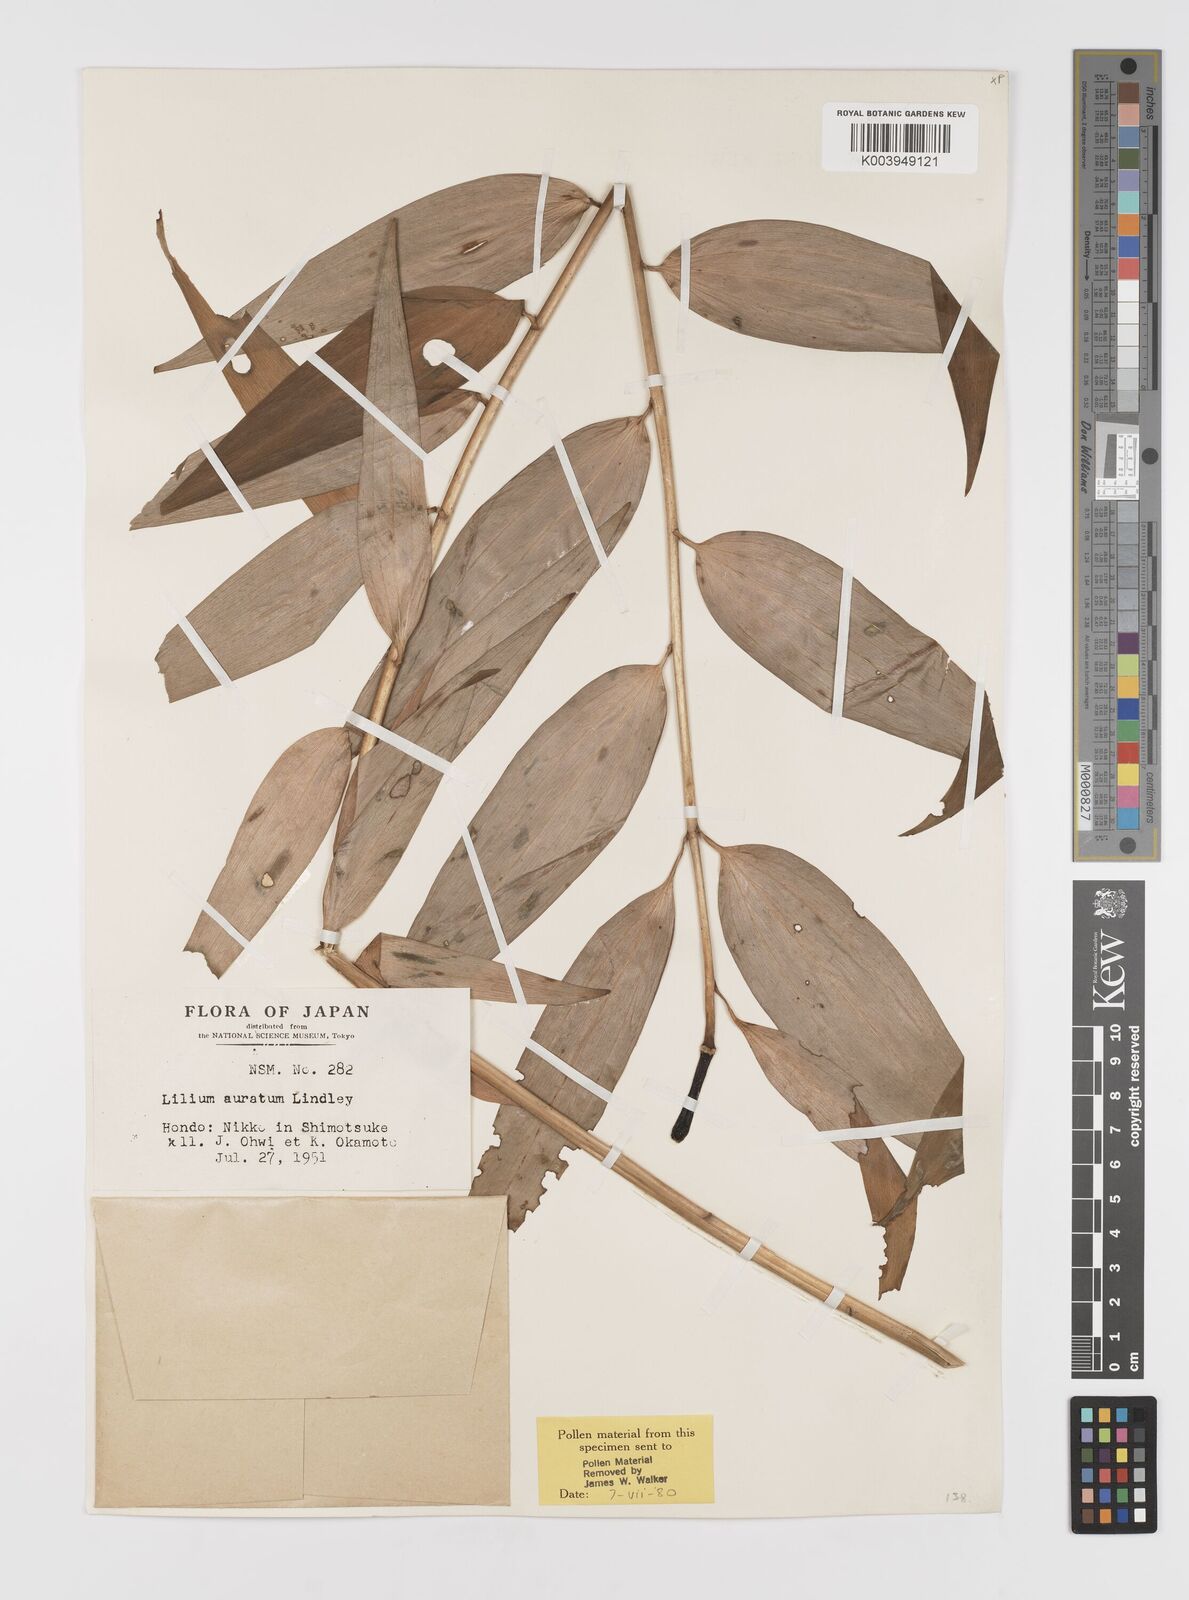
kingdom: Plantae
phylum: Tracheophyta
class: Liliopsida
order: Liliales
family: Liliaceae
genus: Lilium
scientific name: Lilium auratum
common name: Golden-ray lily
